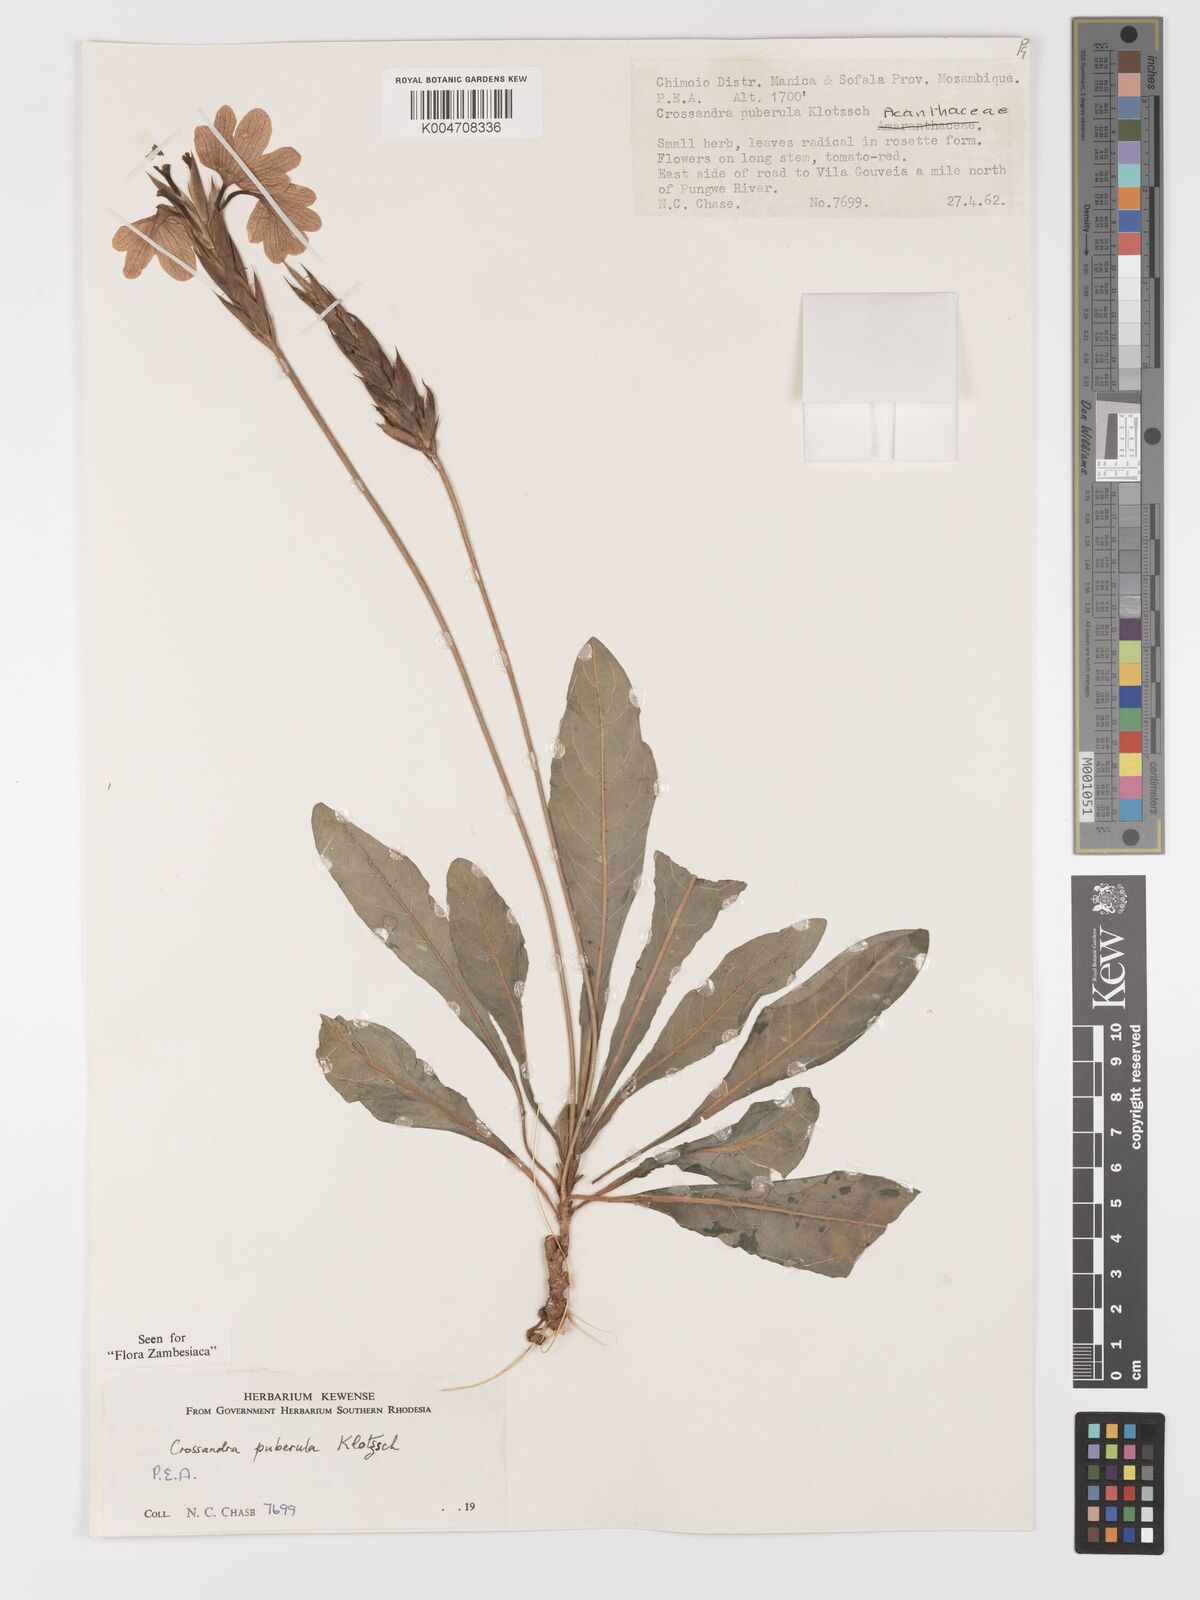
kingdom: Plantae
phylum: Tracheophyta
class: Magnoliopsida
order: Lamiales
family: Acanthaceae
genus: Crossandra
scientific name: Crossandra puberula
